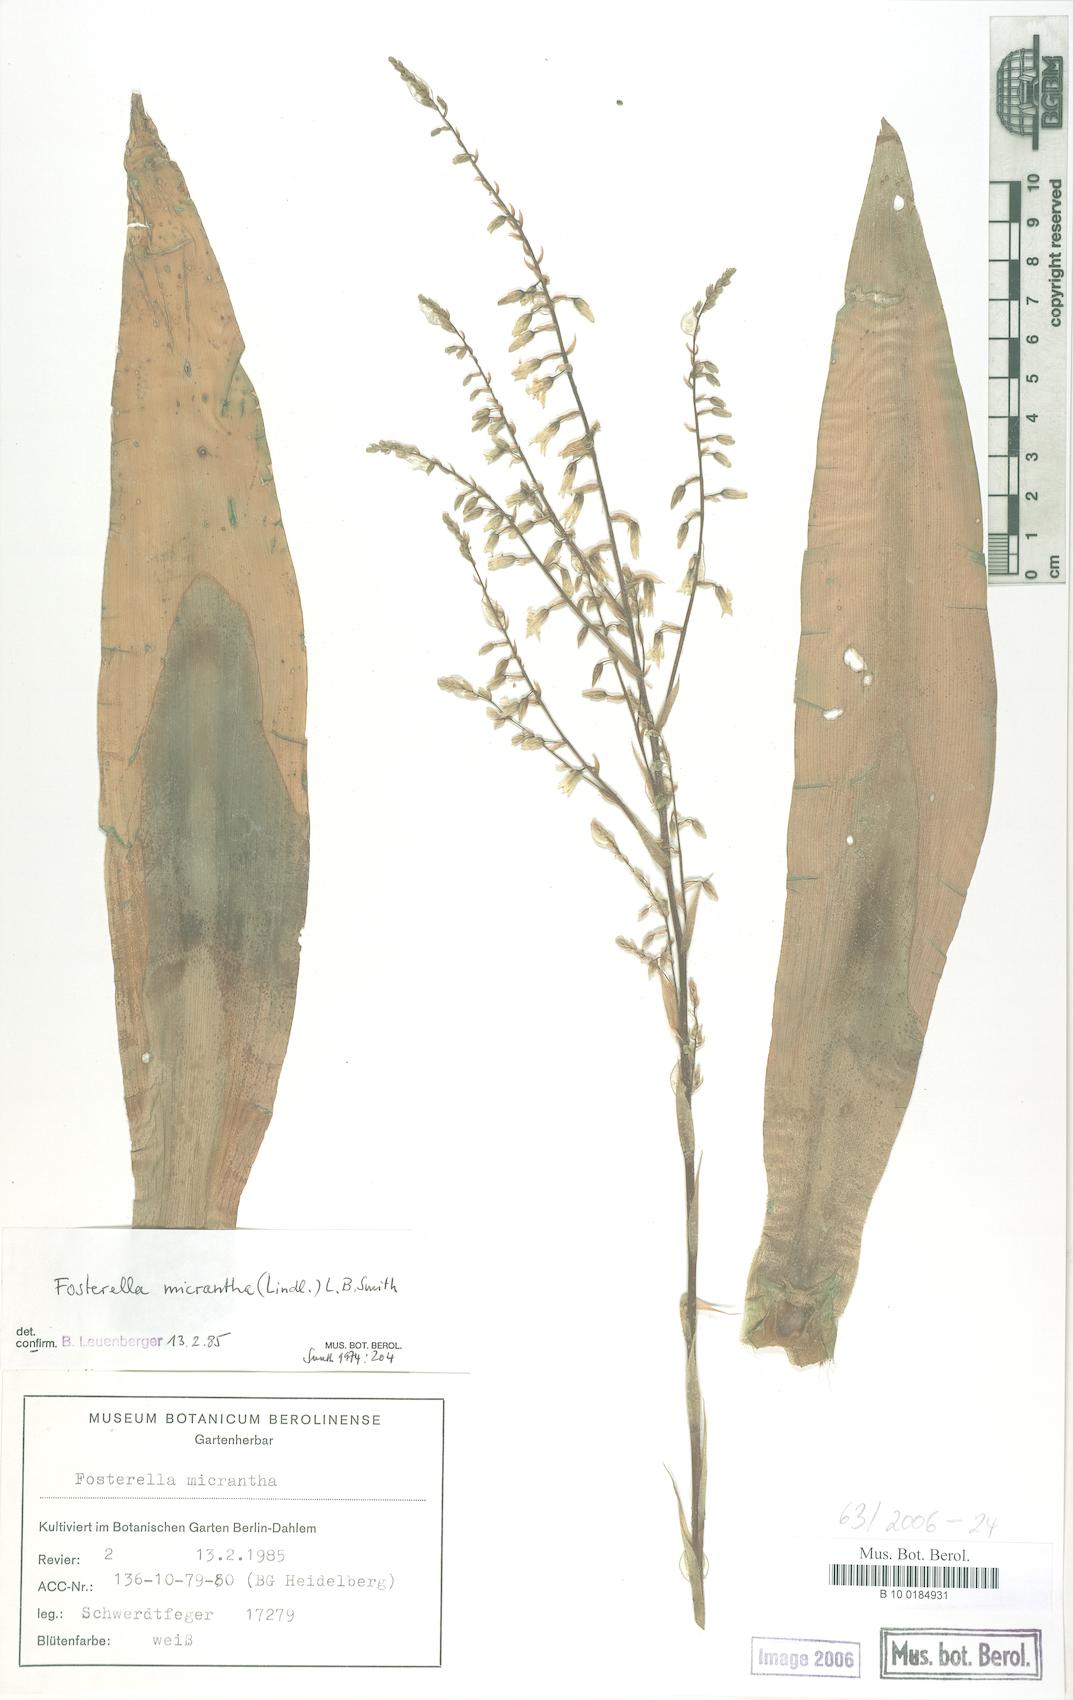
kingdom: Plantae
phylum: Tracheophyta
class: Liliopsida
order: Poales
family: Bromeliaceae
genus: Fosterella
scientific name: Fosterella micrantha
